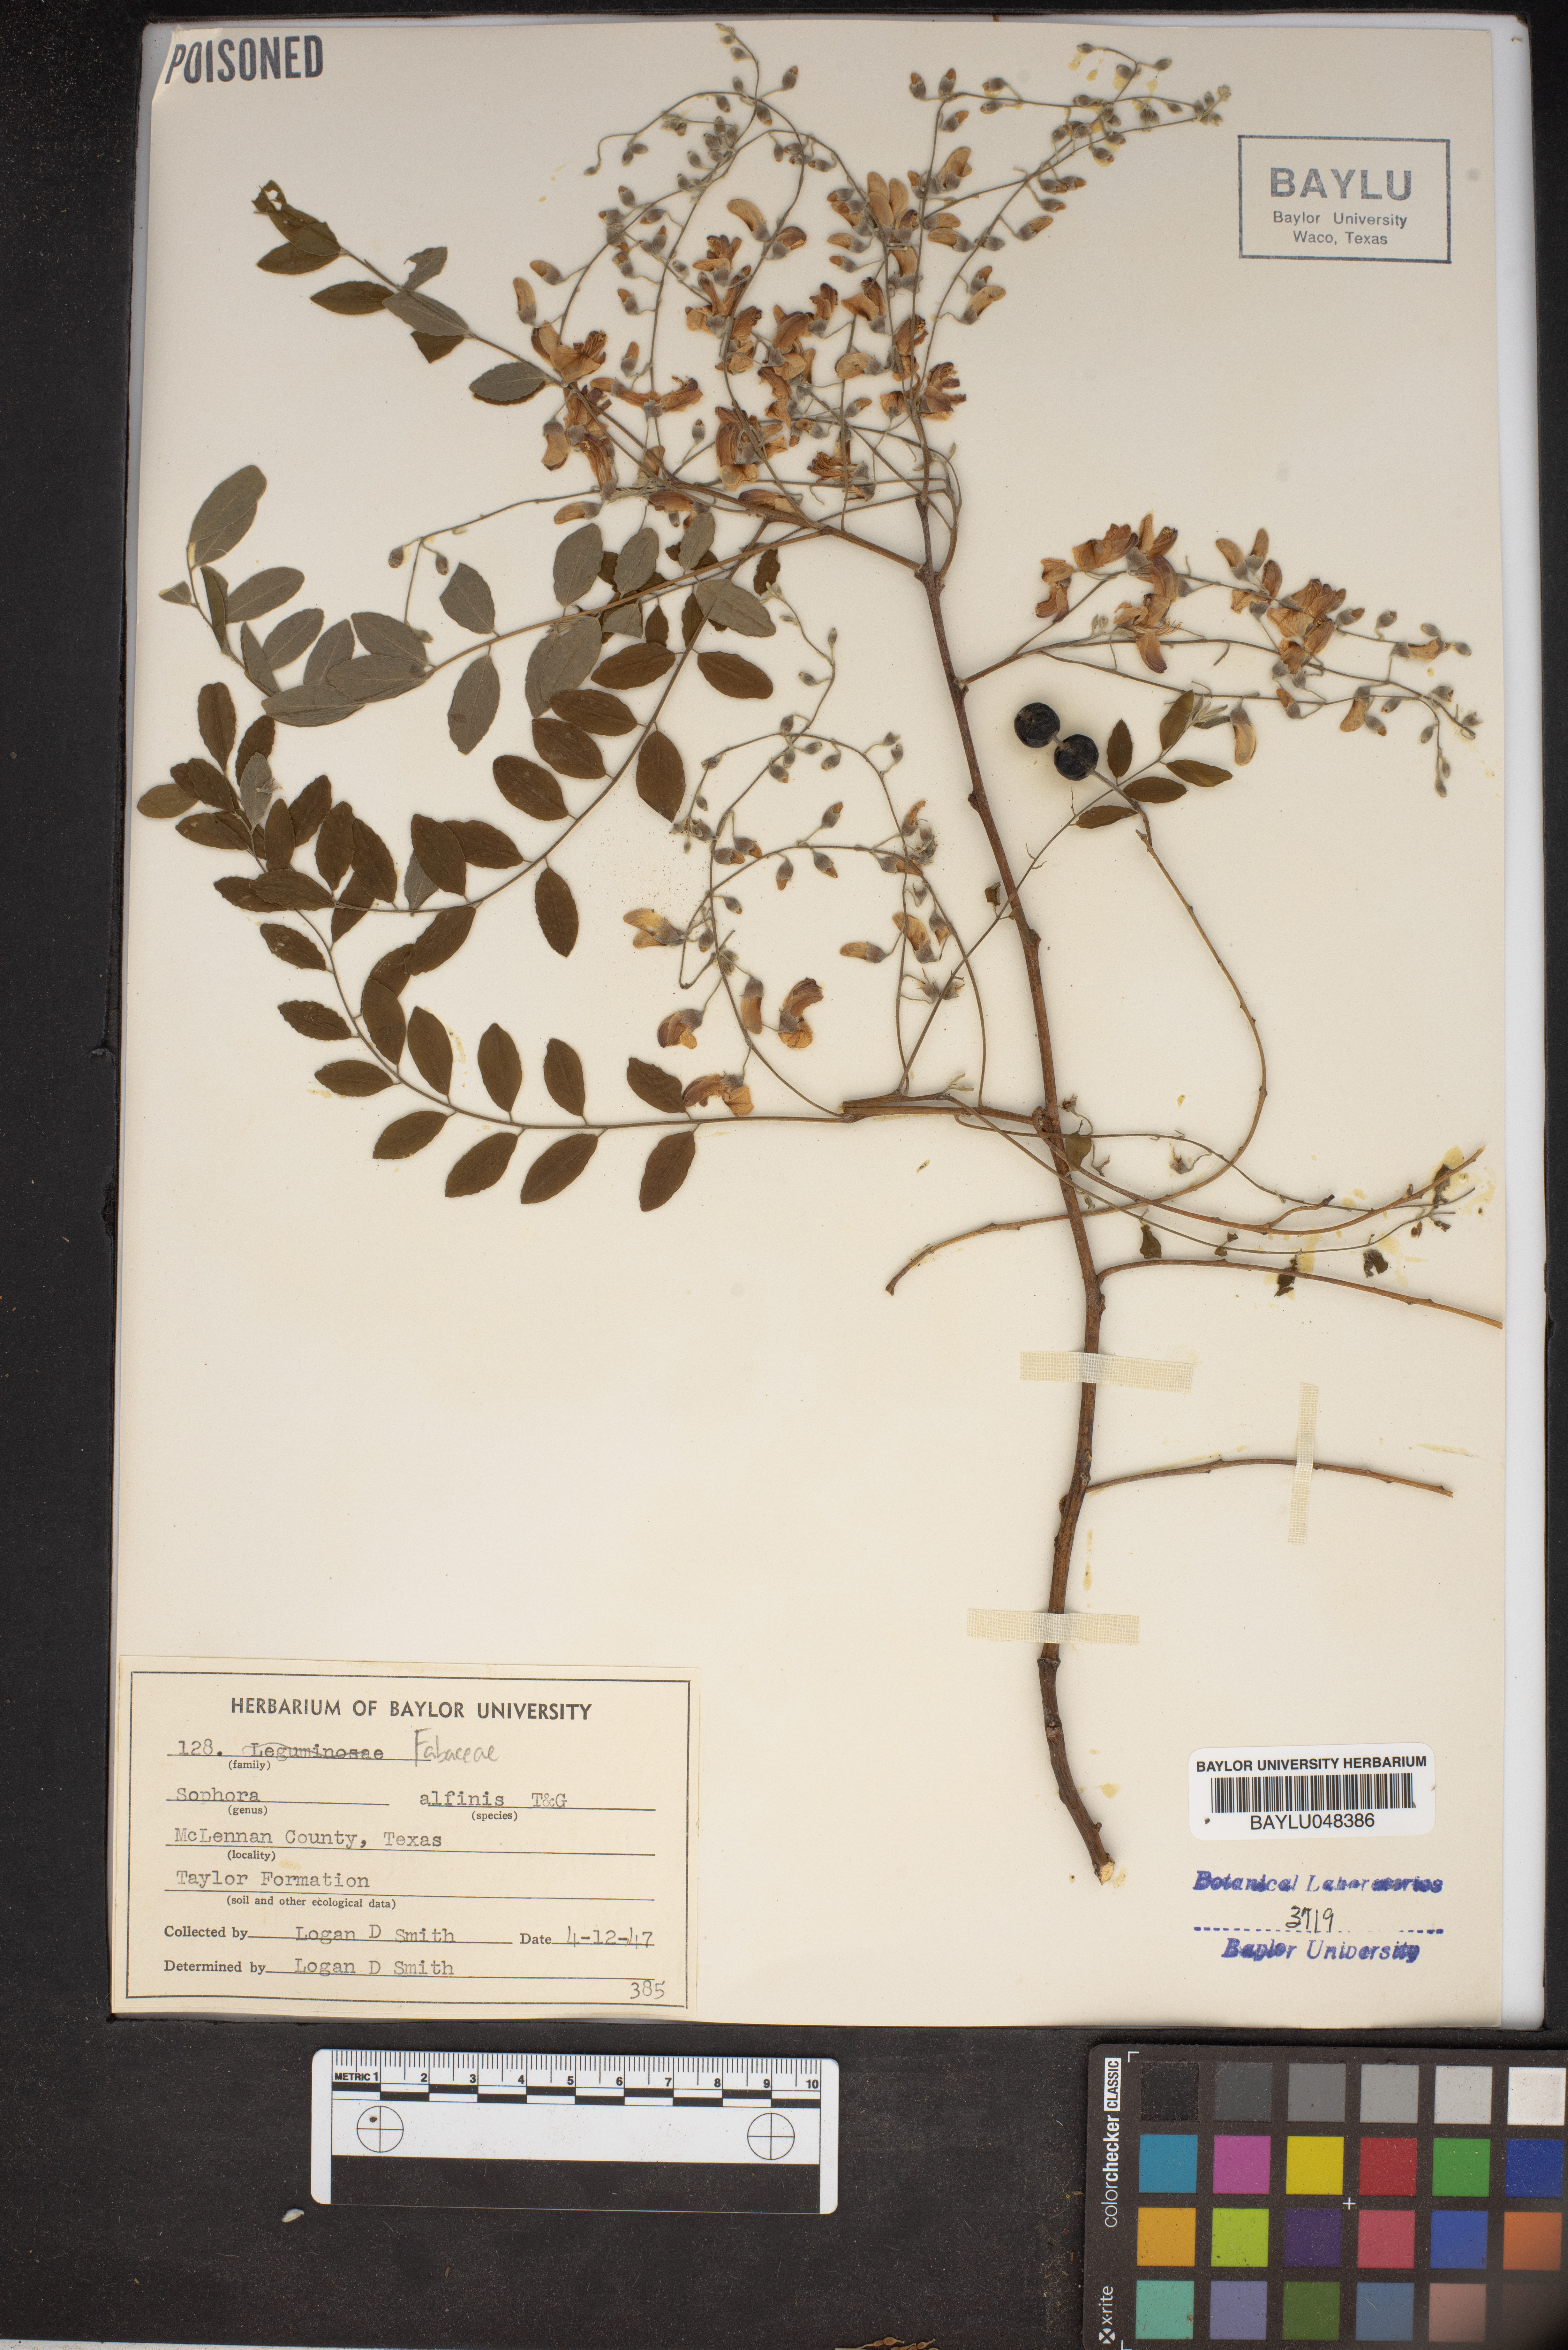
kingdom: Plantae
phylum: Tracheophyta
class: Magnoliopsida
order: Fabales
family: Fabaceae
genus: Styphnolobium
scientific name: Styphnolobium affine
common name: Texas sophora
